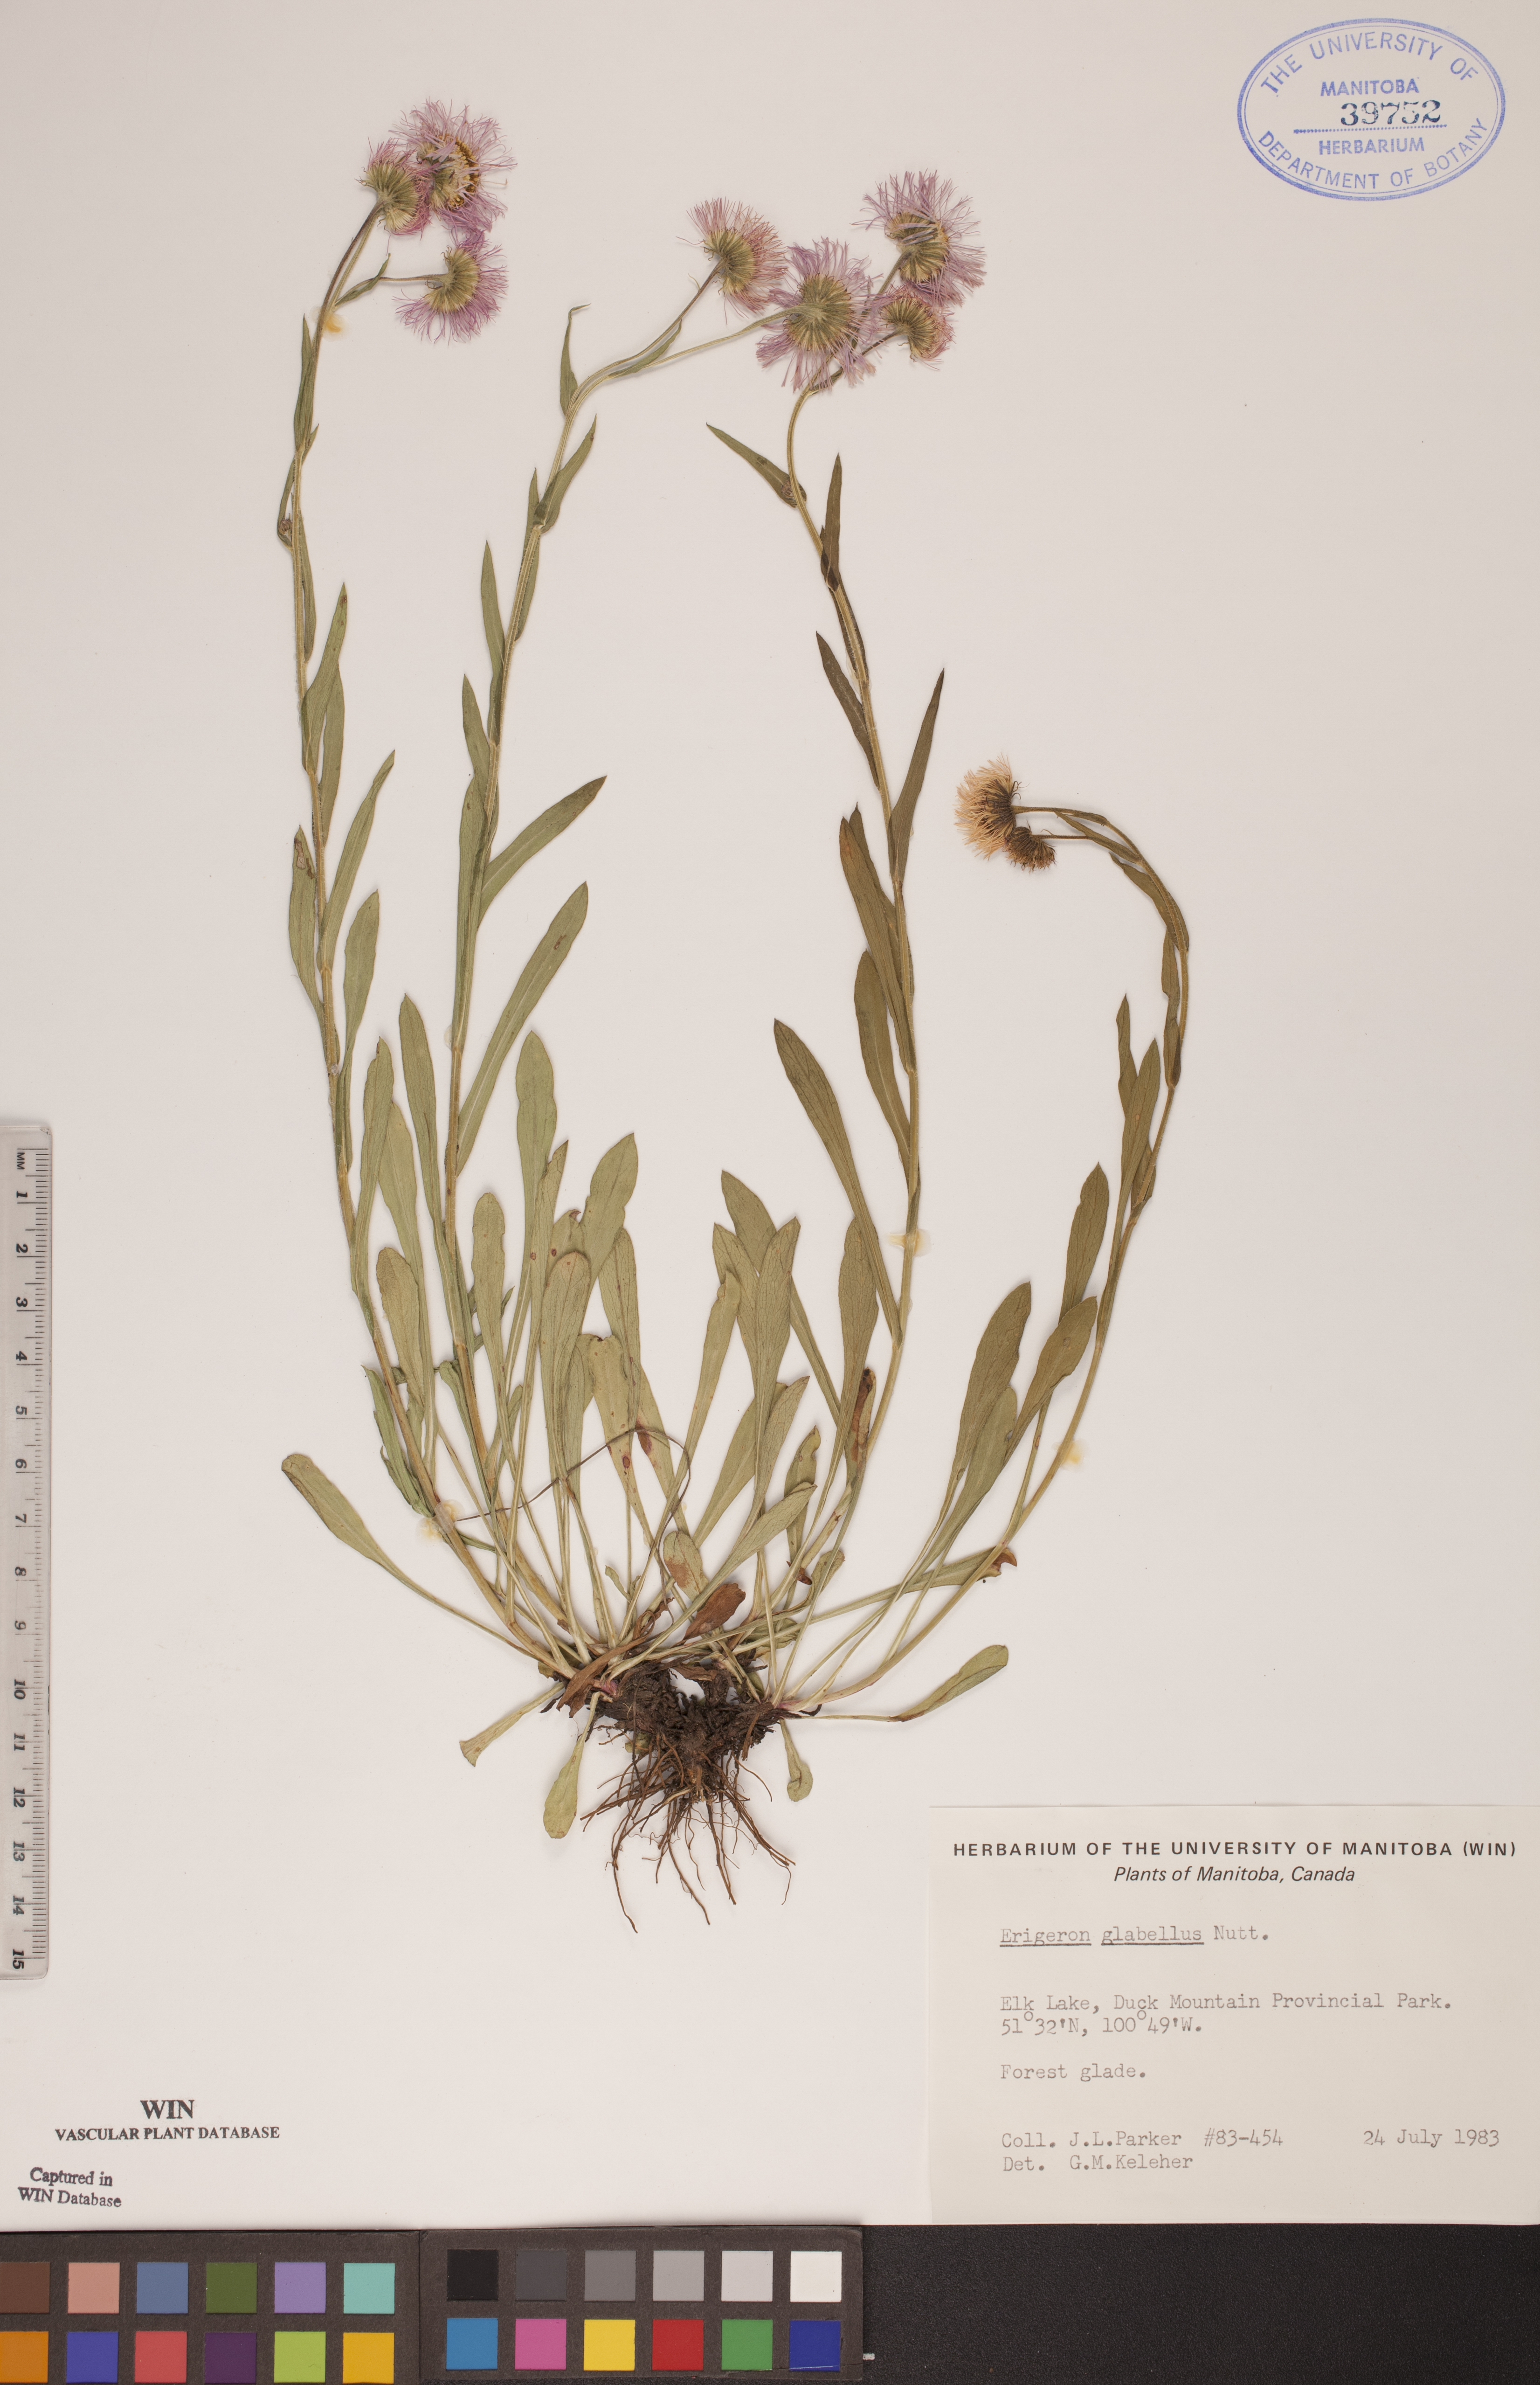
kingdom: Plantae
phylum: Tracheophyta
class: Magnoliopsida
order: Asterales
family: Asteraceae
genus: Erigeron
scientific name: Erigeron glabellus
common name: Smooth fleabane
